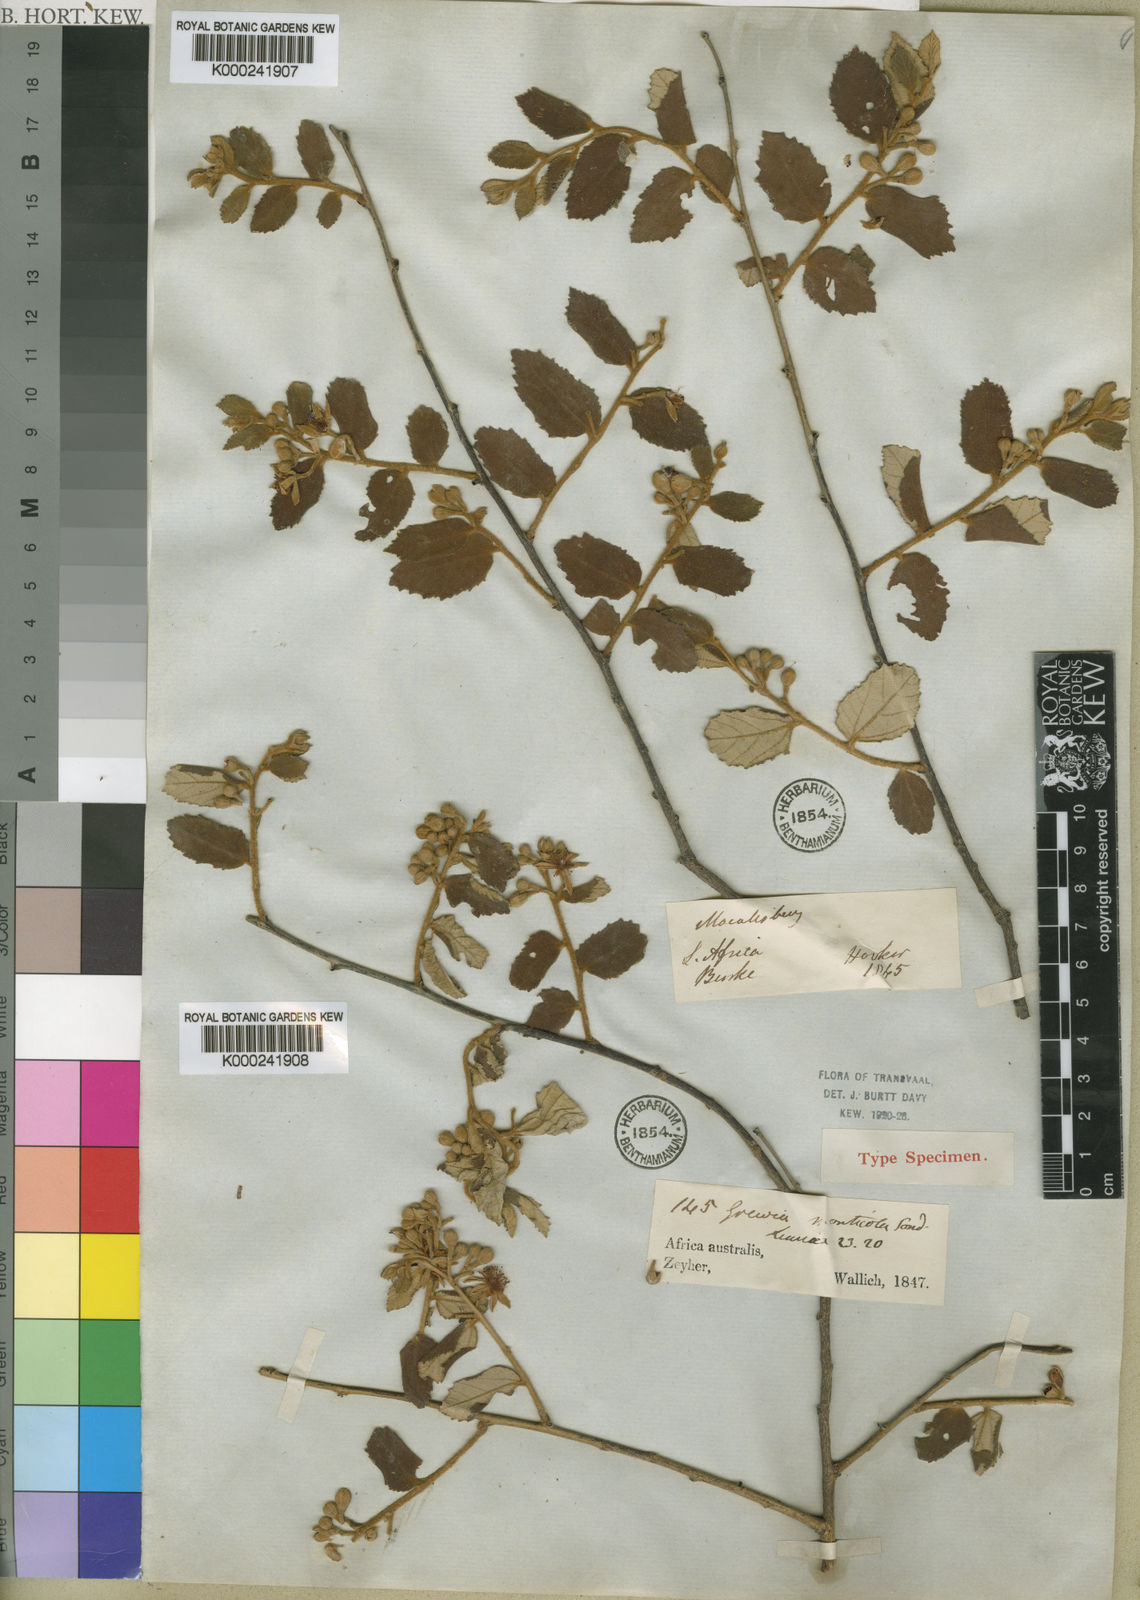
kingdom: Plantae
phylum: Tracheophyta
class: Magnoliopsida
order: Malvales
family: Malvaceae
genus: Grewia
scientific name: Grewia monticola
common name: Grey raisin
